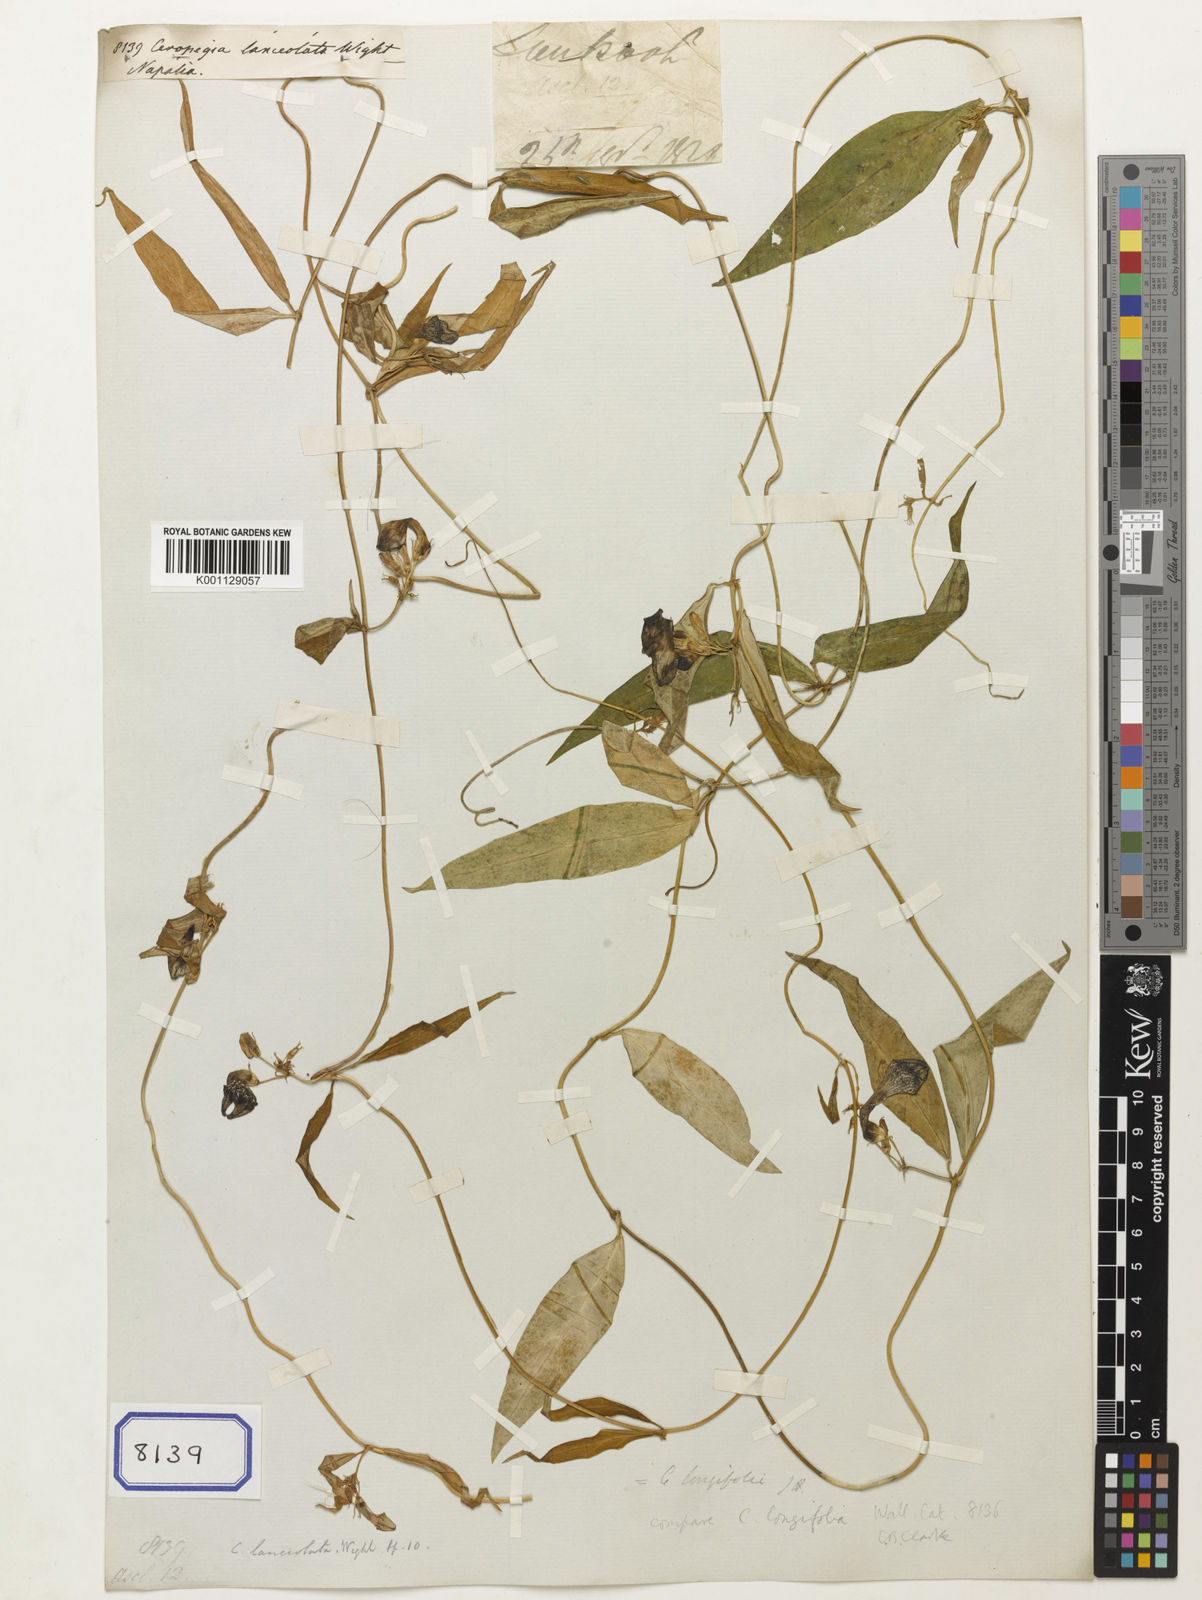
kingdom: Plantae
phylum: Tracheophyta
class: Magnoliopsida
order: Gentianales
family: Apocynaceae
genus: Ceropegia
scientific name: Ceropegia longifolia
